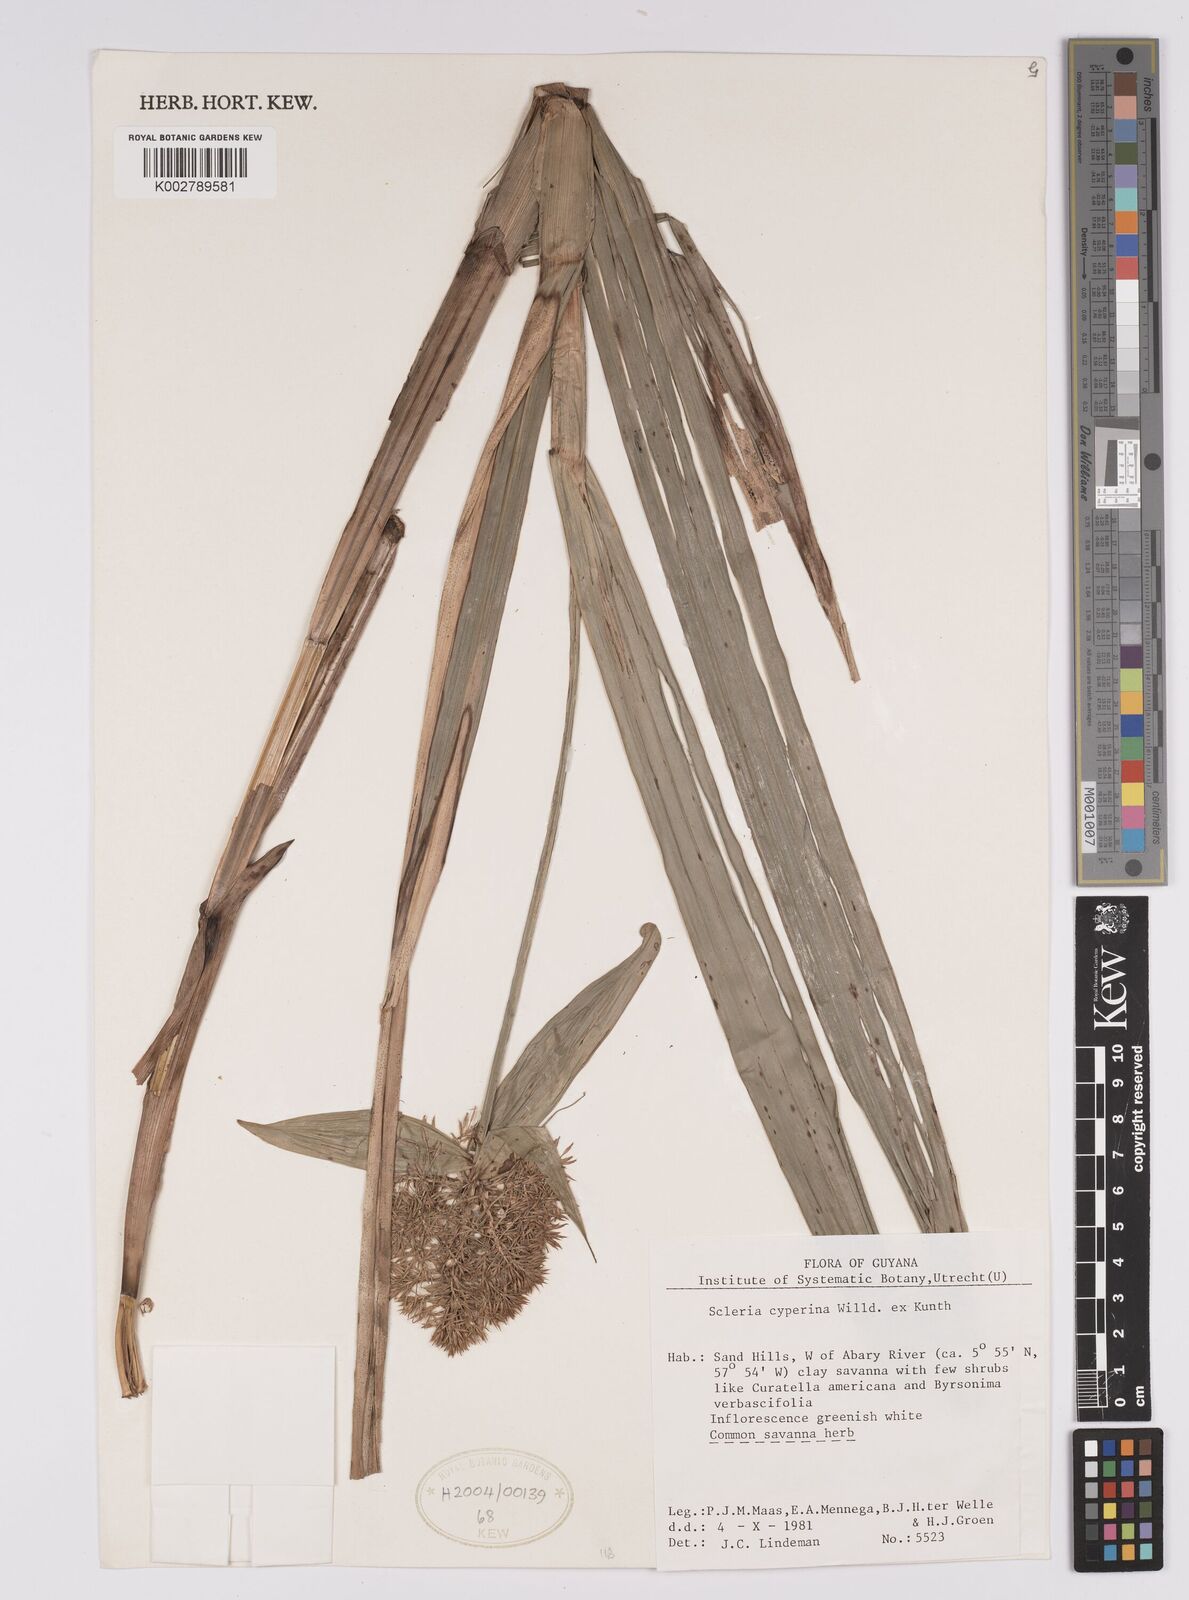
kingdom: Plantae
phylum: Tracheophyta
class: Liliopsida
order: Poales
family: Cyperaceae
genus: Scleria
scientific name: Scleria cyperina
